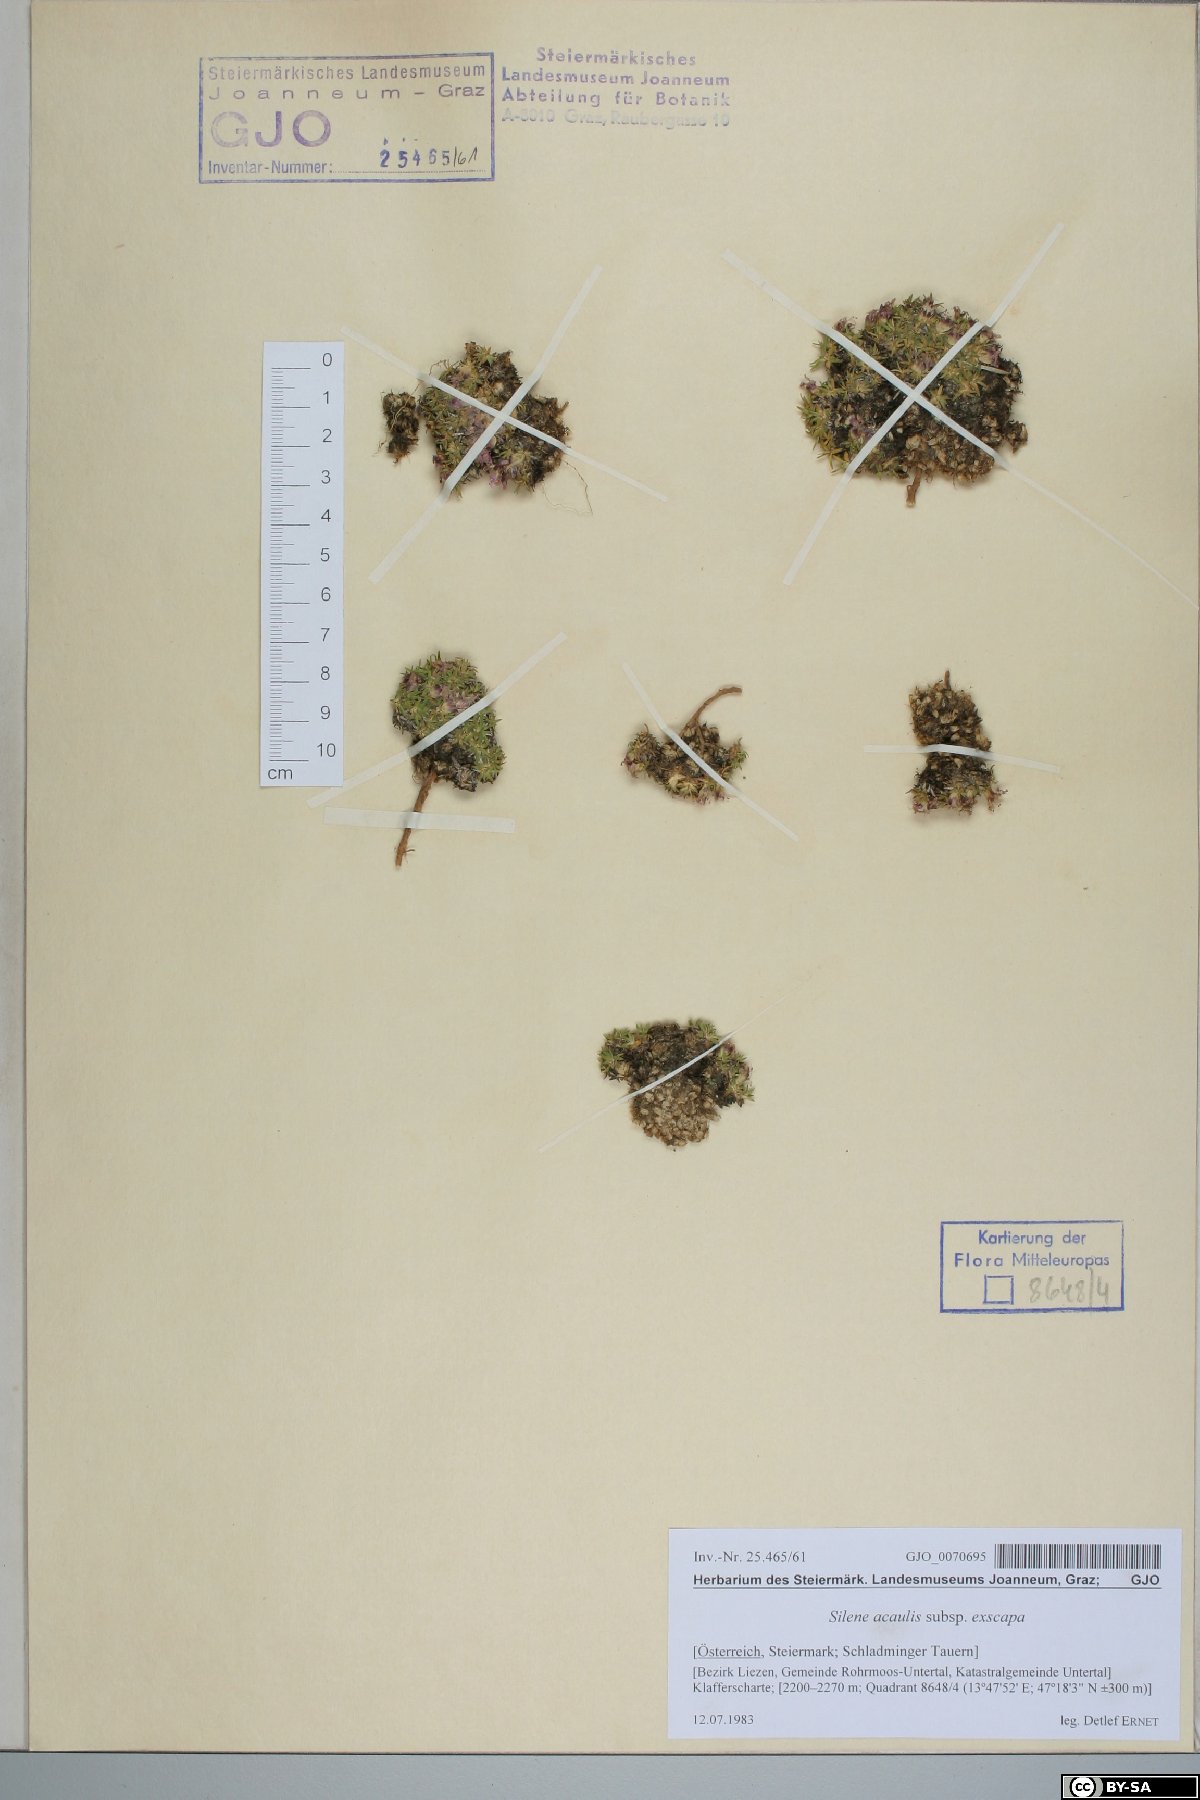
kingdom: Plantae
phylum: Tracheophyta
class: Magnoliopsida
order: Caryophyllales
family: Caryophyllaceae
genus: Silene
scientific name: Silene acaulis
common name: Moss campion
